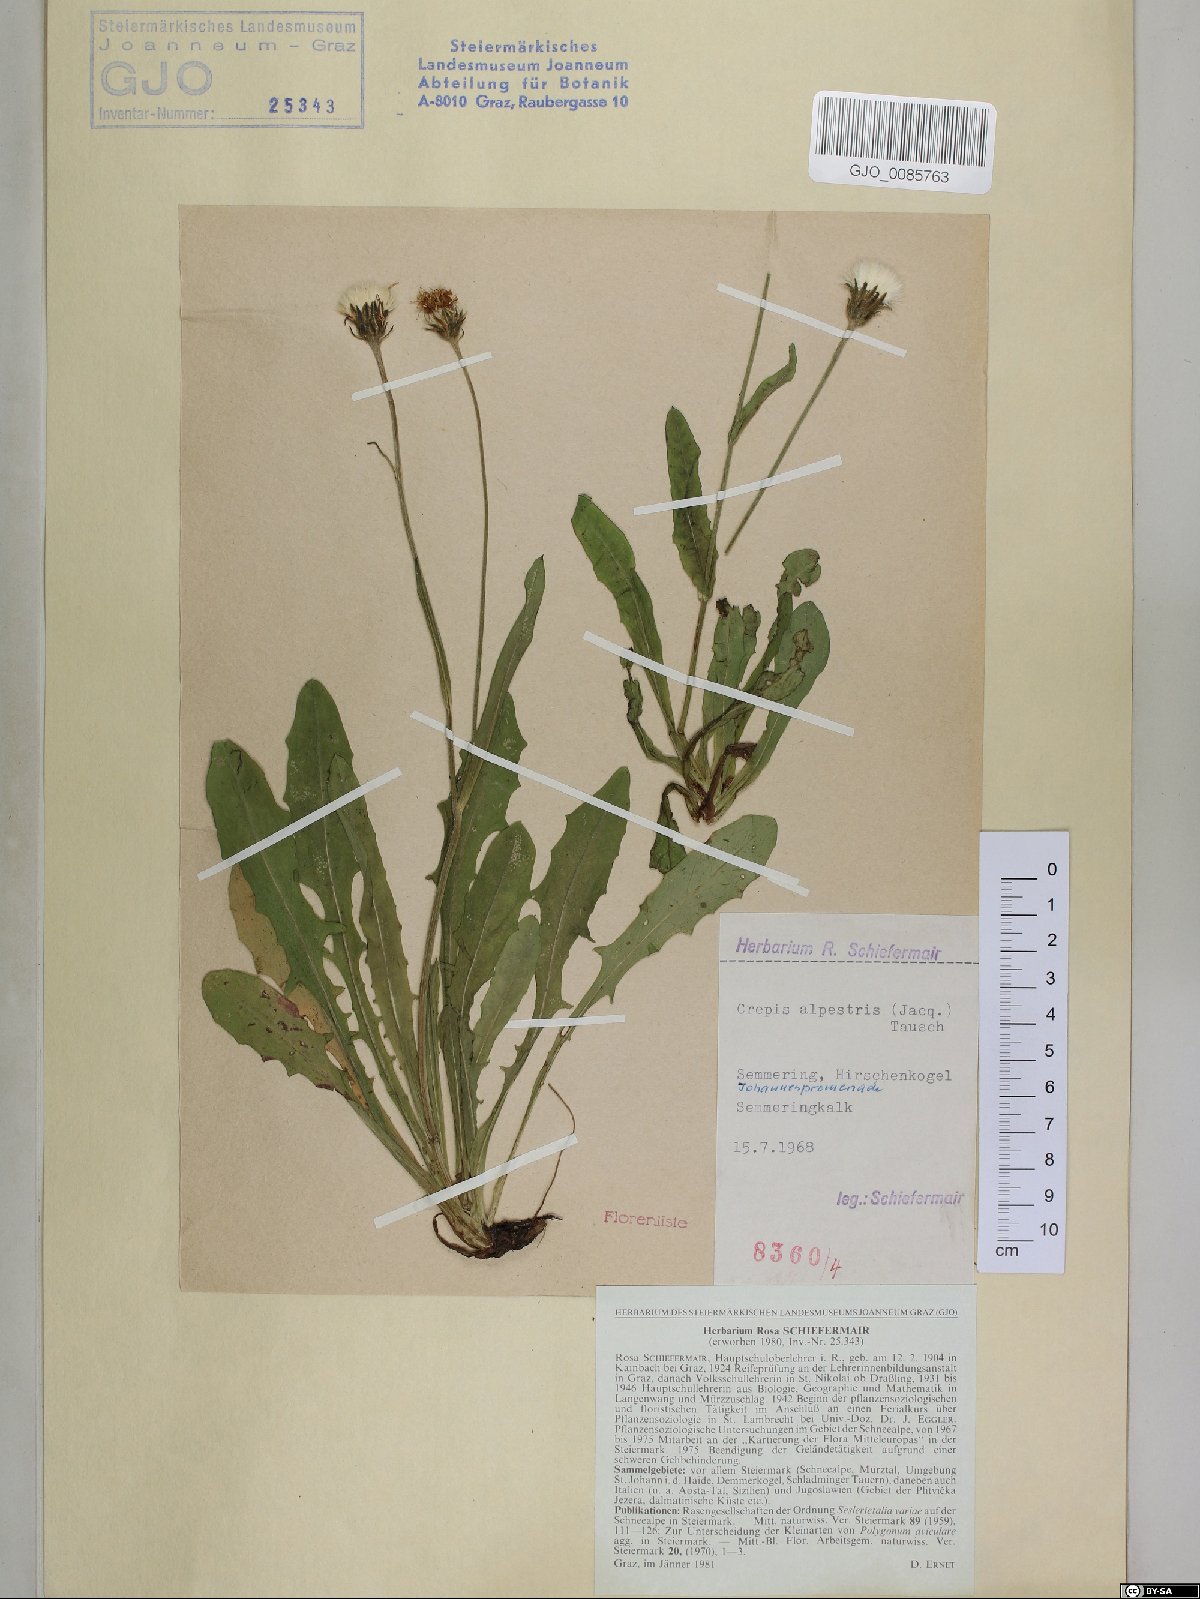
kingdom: Plantae
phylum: Tracheophyta
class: Magnoliopsida
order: Asterales
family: Asteraceae
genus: Crepis
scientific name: Crepis alpestris
